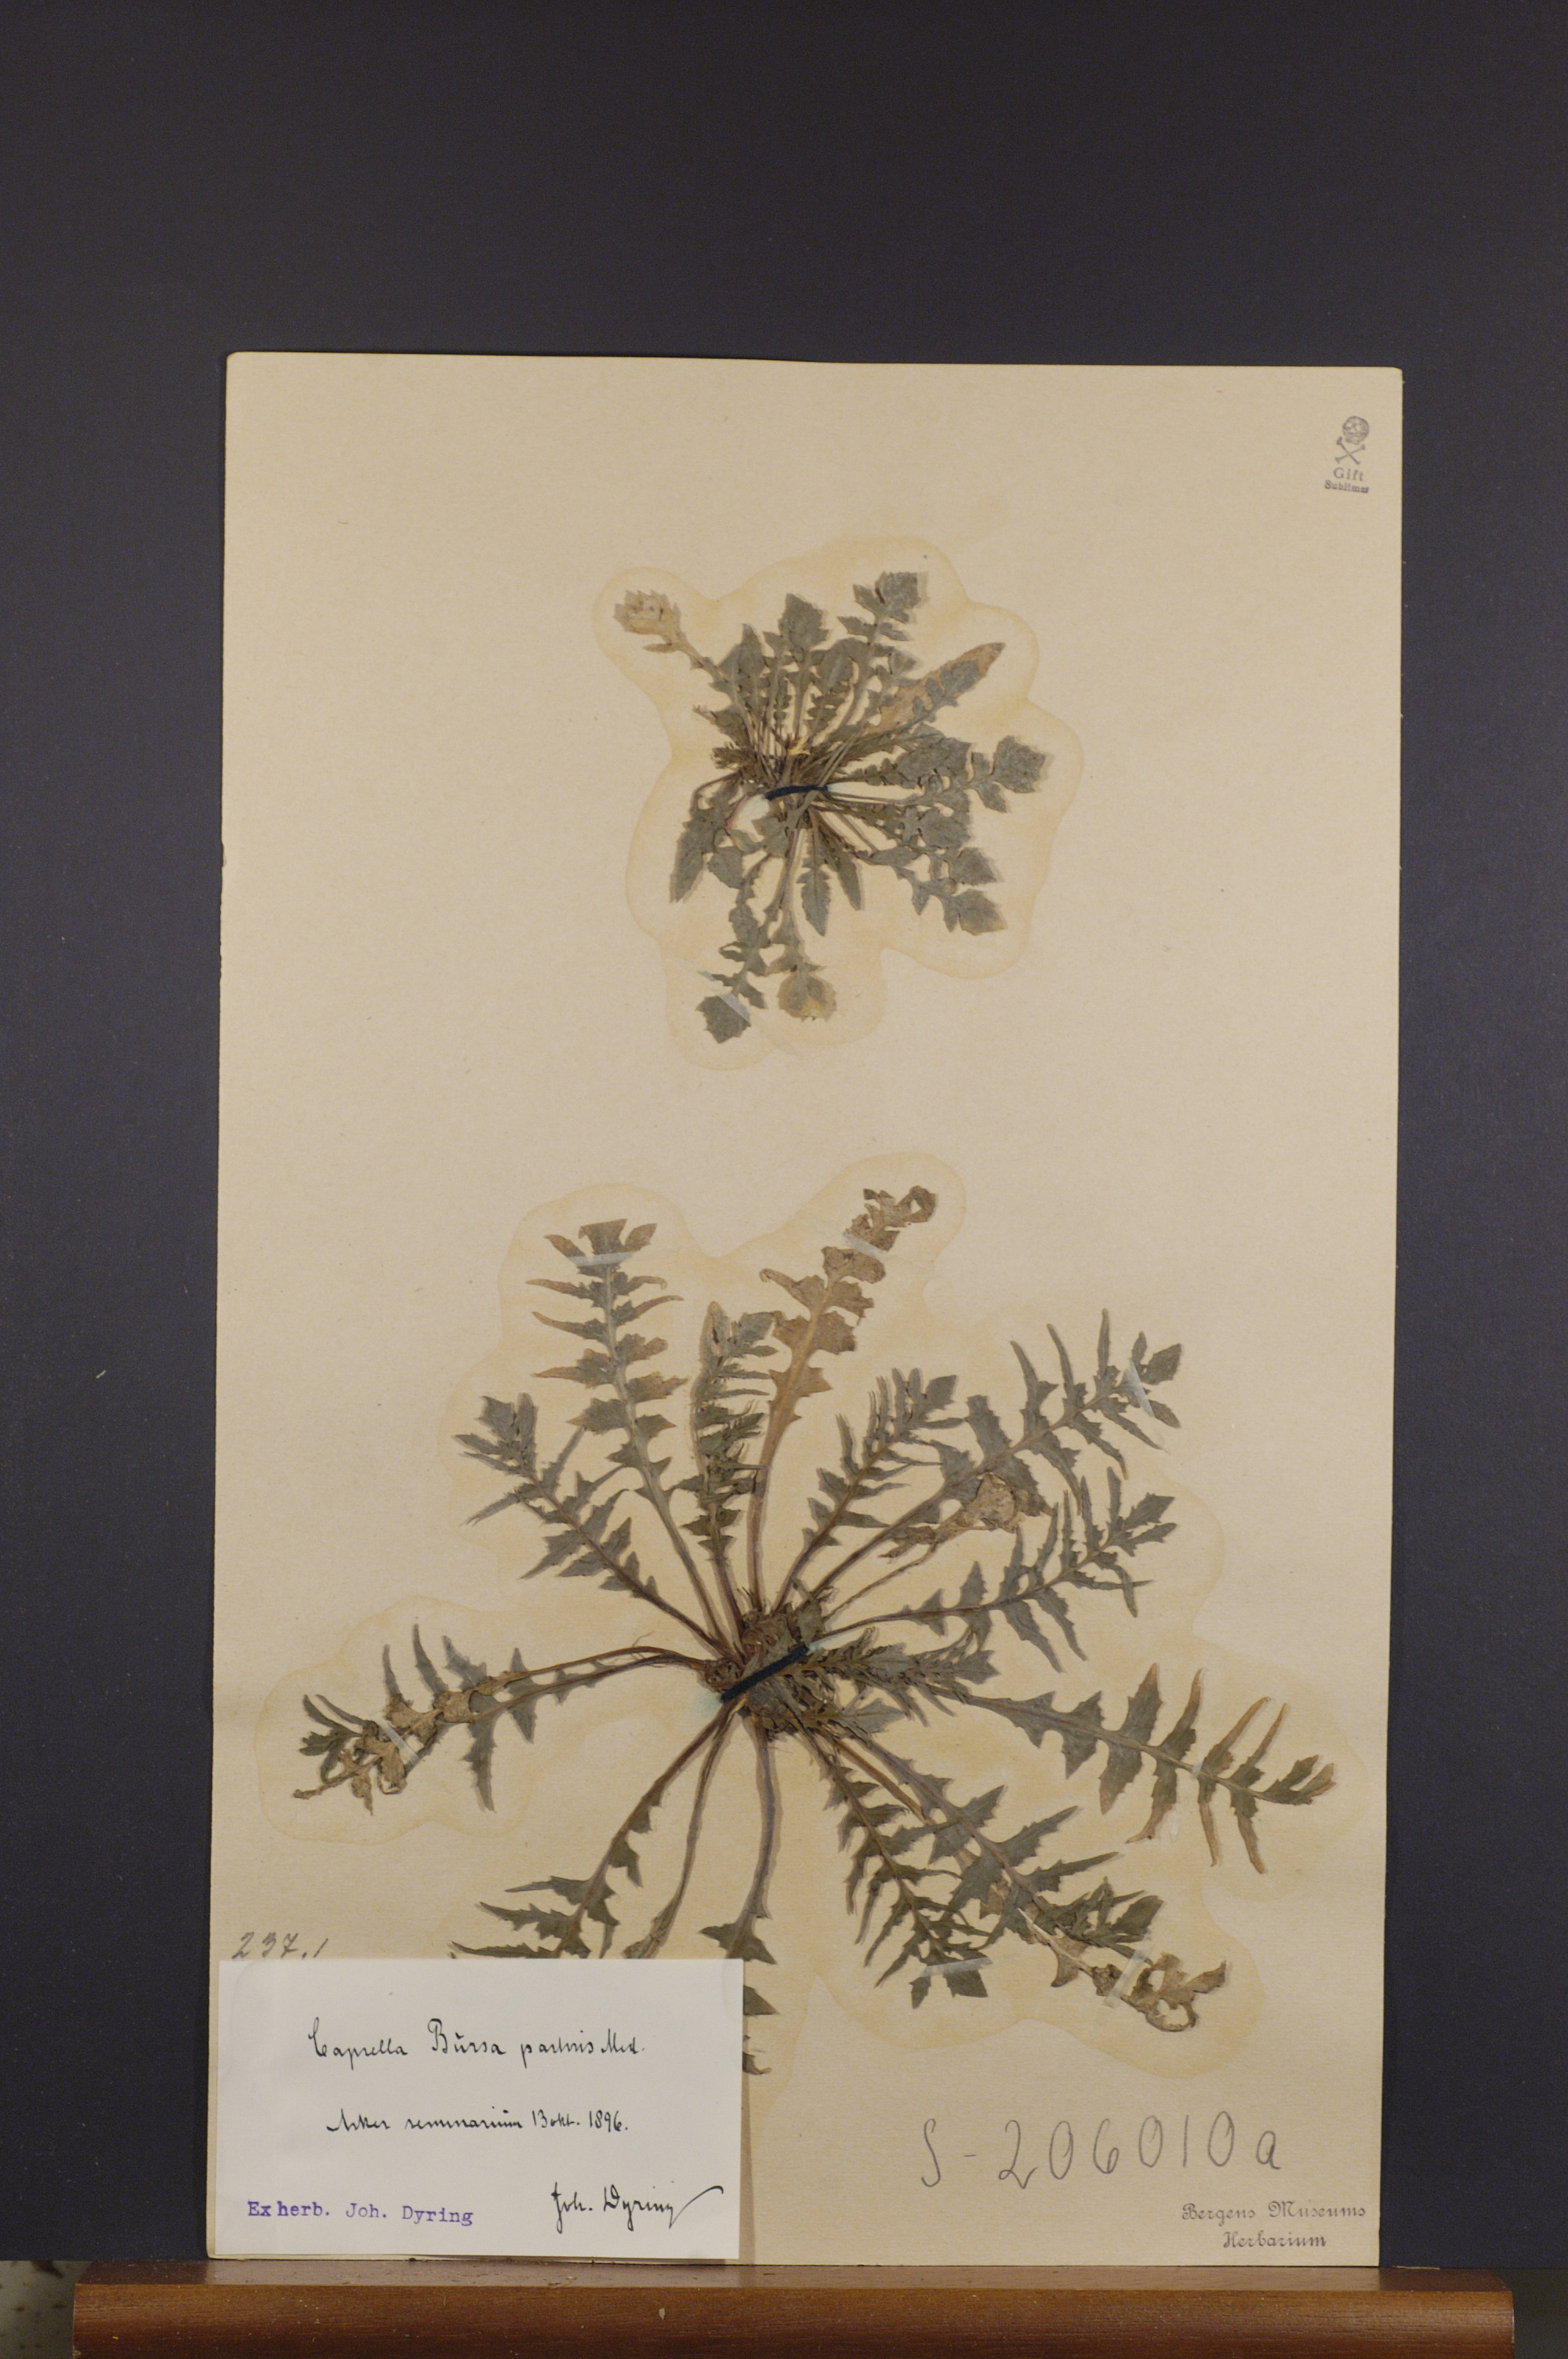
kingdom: Plantae
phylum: Tracheophyta
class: Magnoliopsida
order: Brassicales
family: Brassicaceae
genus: Capsella
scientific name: Capsella bursa-pastoris
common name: Shepherd's purse
